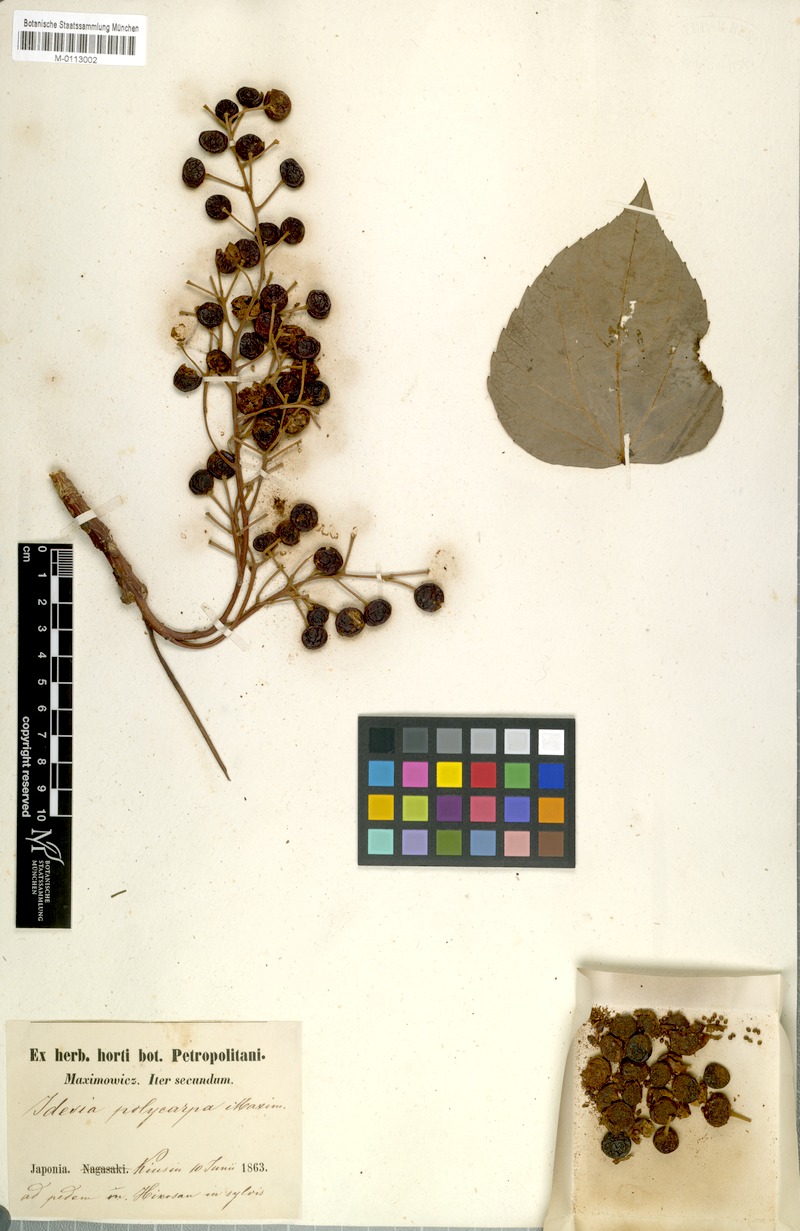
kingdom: Plantae
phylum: Tracheophyta
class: Magnoliopsida
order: Malpighiales
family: Salicaceae
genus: Idesia
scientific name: Idesia polycarpa
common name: Idesia tree
